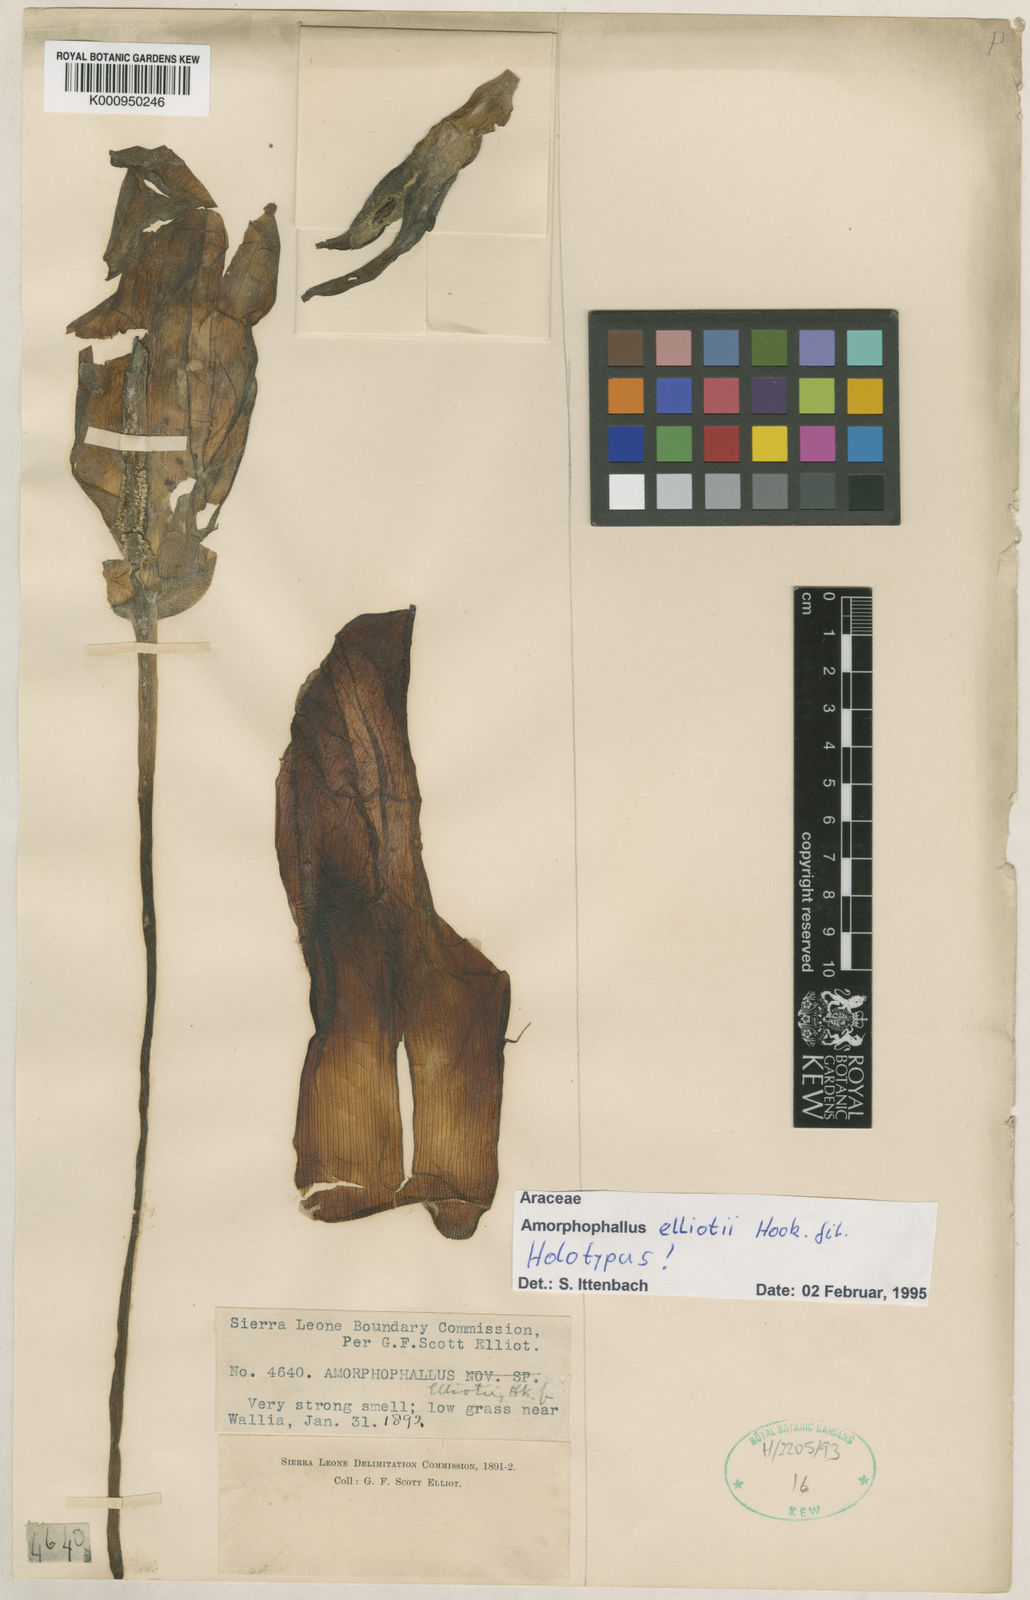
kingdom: Plantae
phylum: Tracheophyta
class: Liliopsida
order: Alismatales
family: Araceae
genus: Amorphophallus
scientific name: Amorphophallus elliottii
